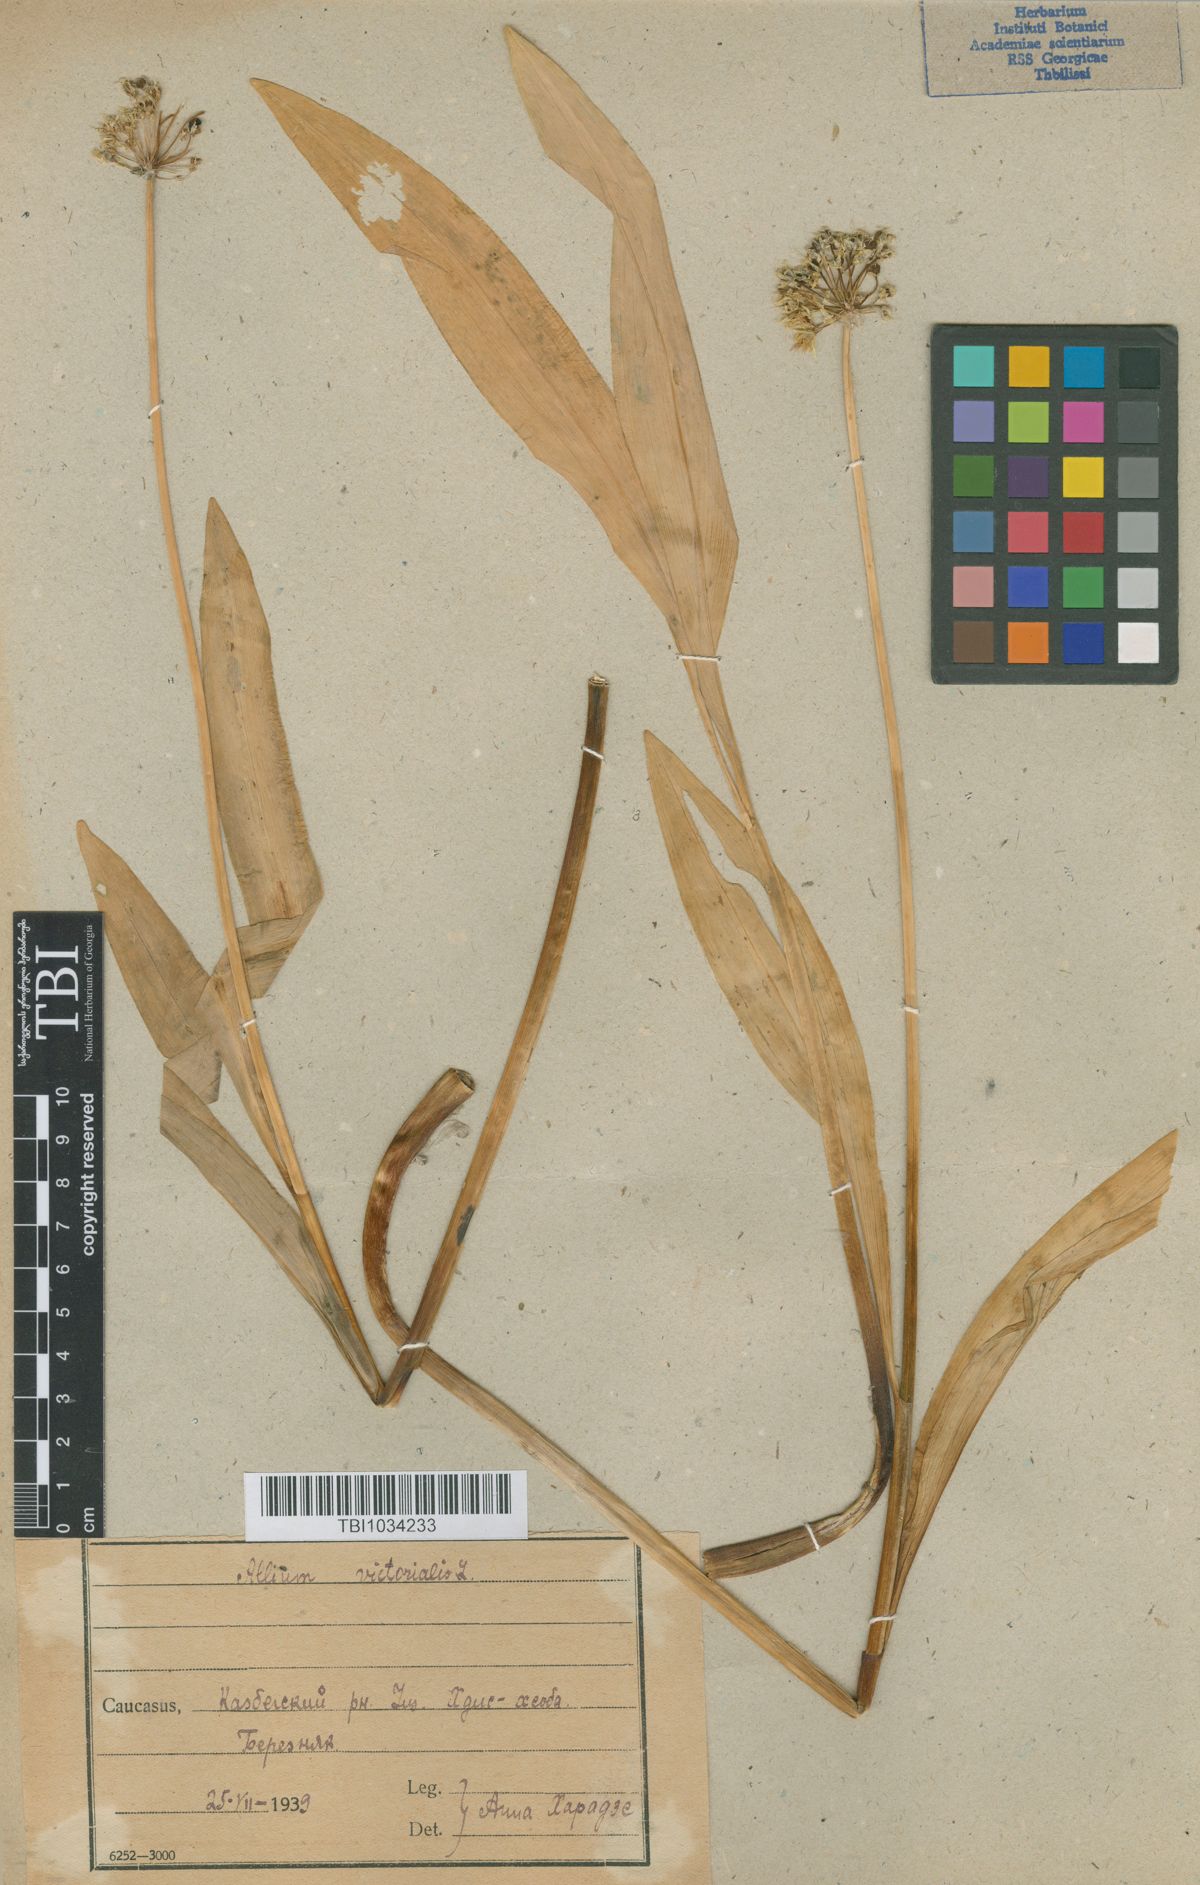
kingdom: Plantae
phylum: Tracheophyta
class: Liliopsida
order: Asparagales
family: Amaryllidaceae
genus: Allium
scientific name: Allium victorialis
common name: Alpine leek
